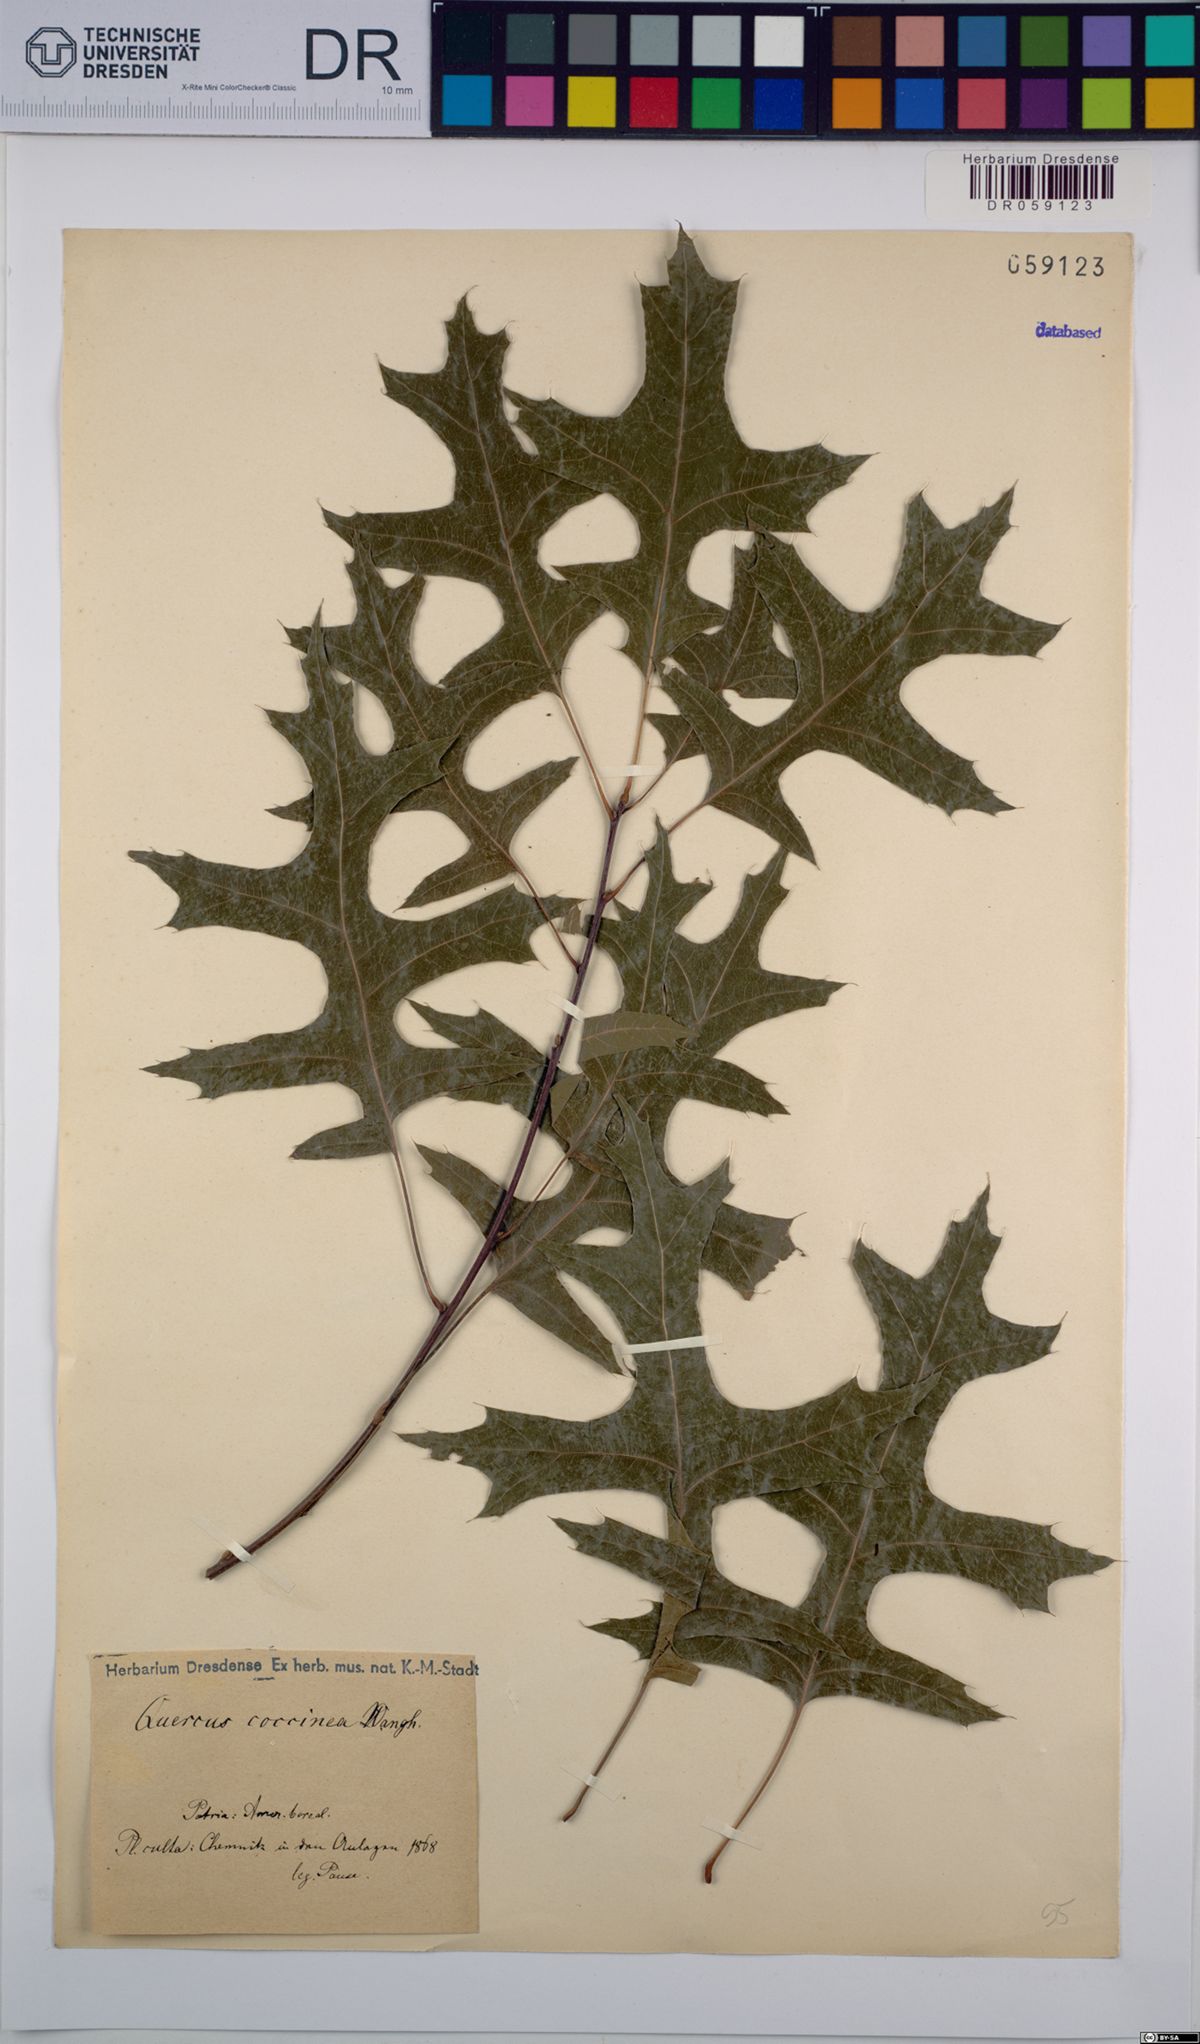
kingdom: Plantae
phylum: Tracheophyta
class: Magnoliopsida
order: Fagales
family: Fagaceae
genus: Quercus
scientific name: Quercus coccinea
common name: Scarlet oak
